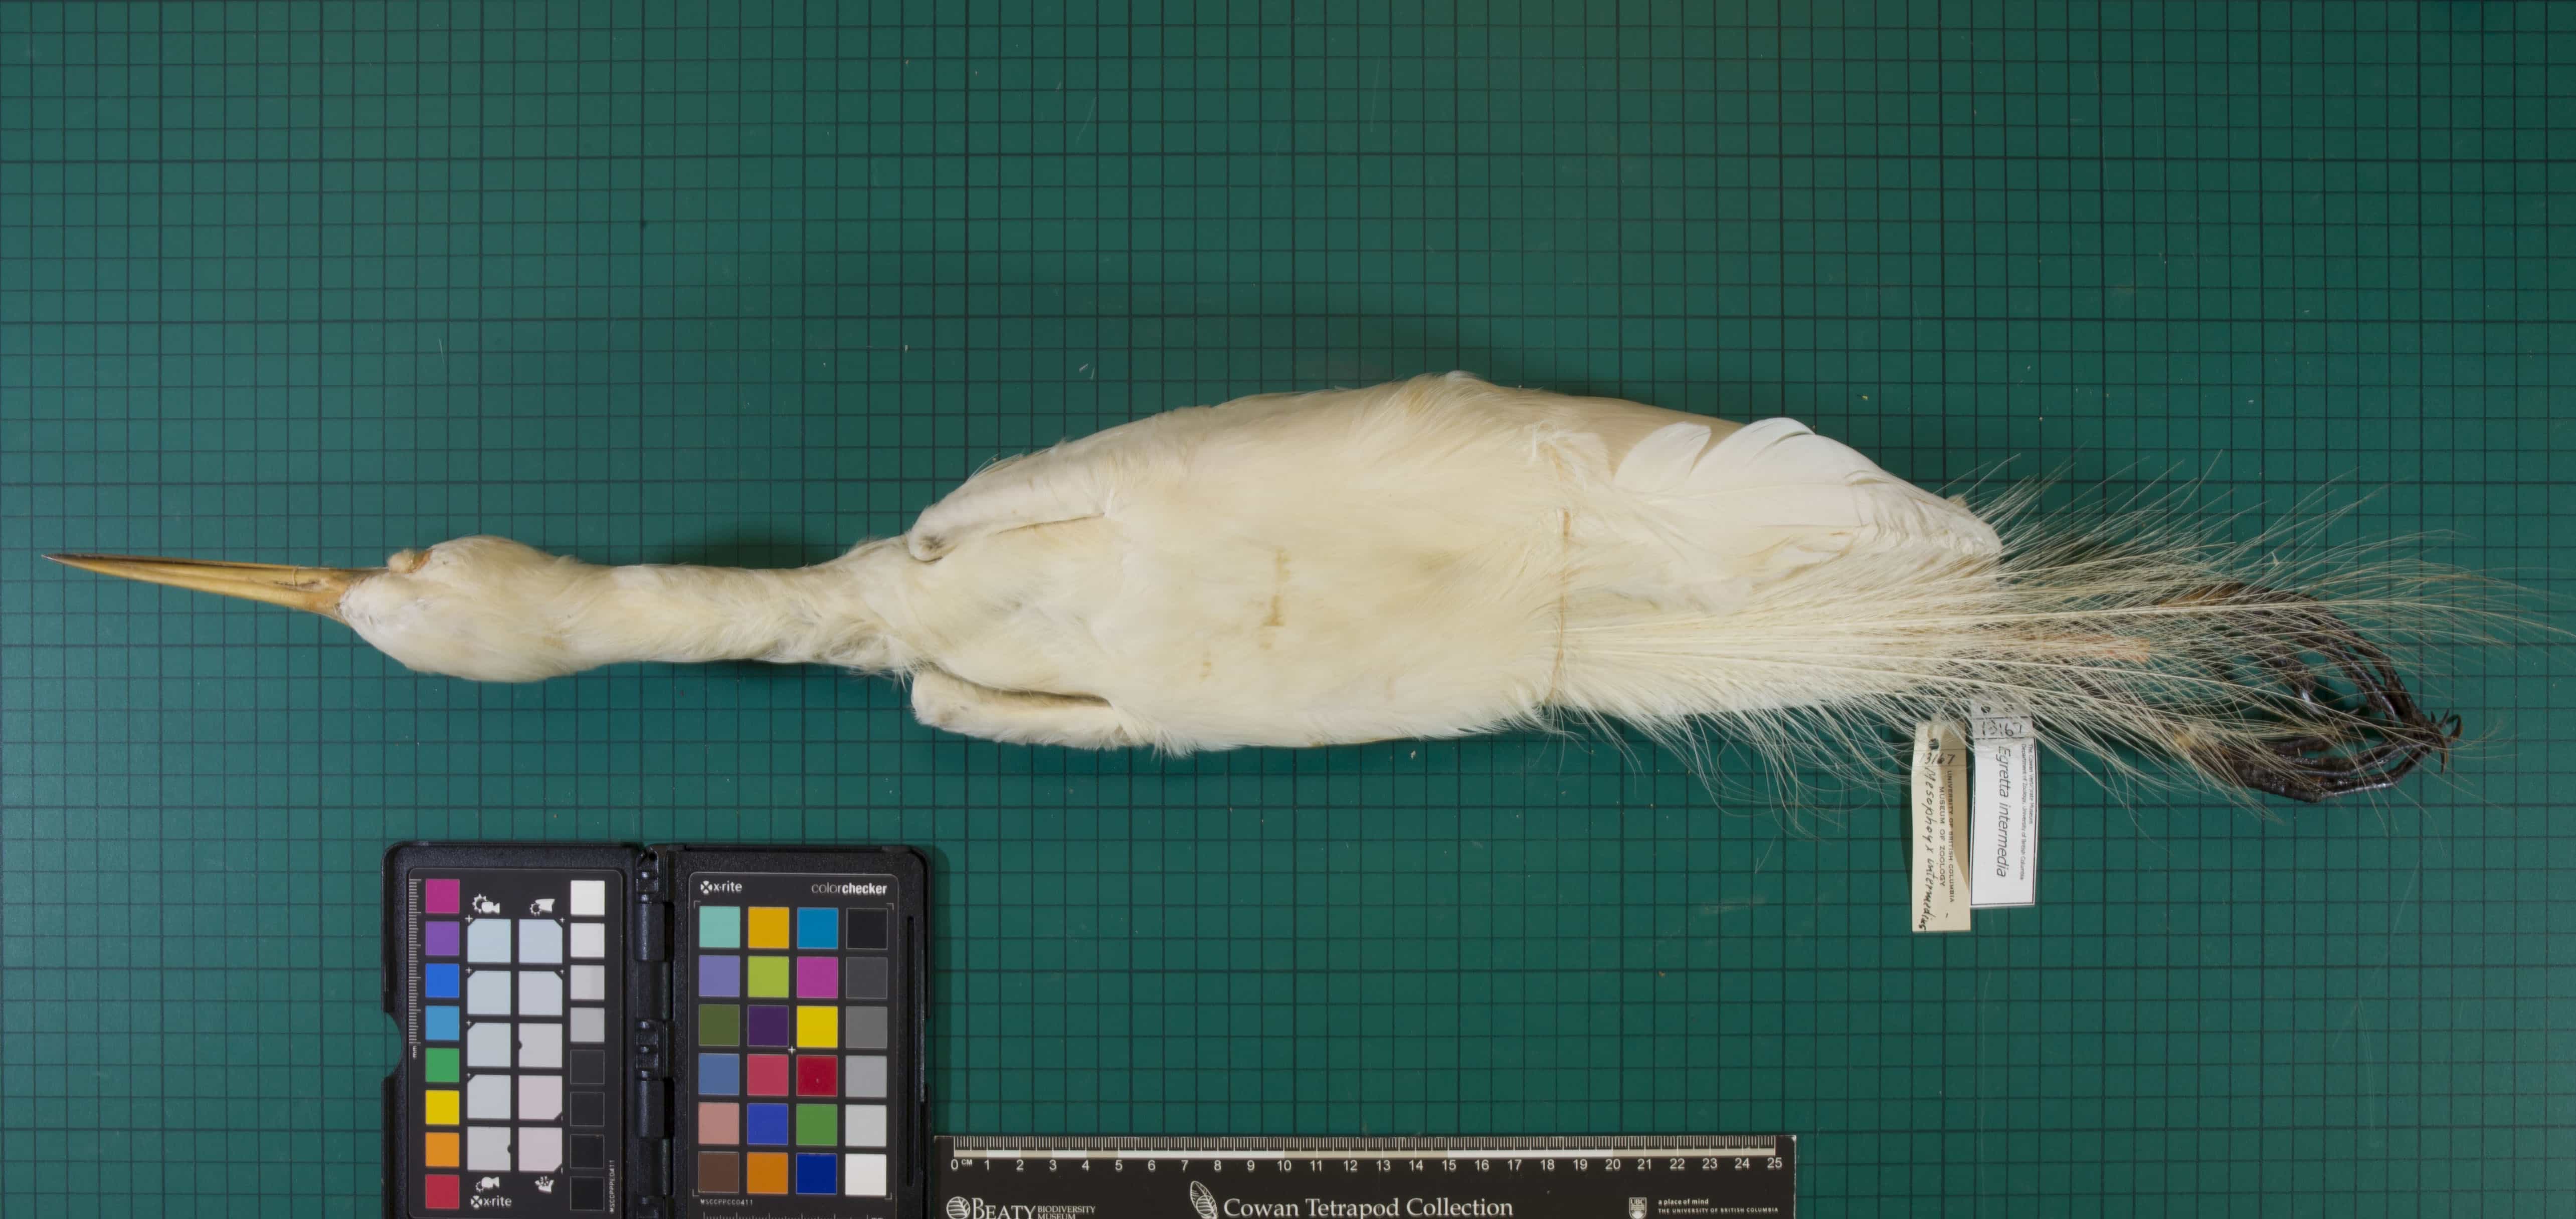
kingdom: Animalia
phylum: Chordata
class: Aves
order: Pelecaniformes
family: Ardeidae
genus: Egretta
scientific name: Egretta intermedia
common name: Intermediate Egret
